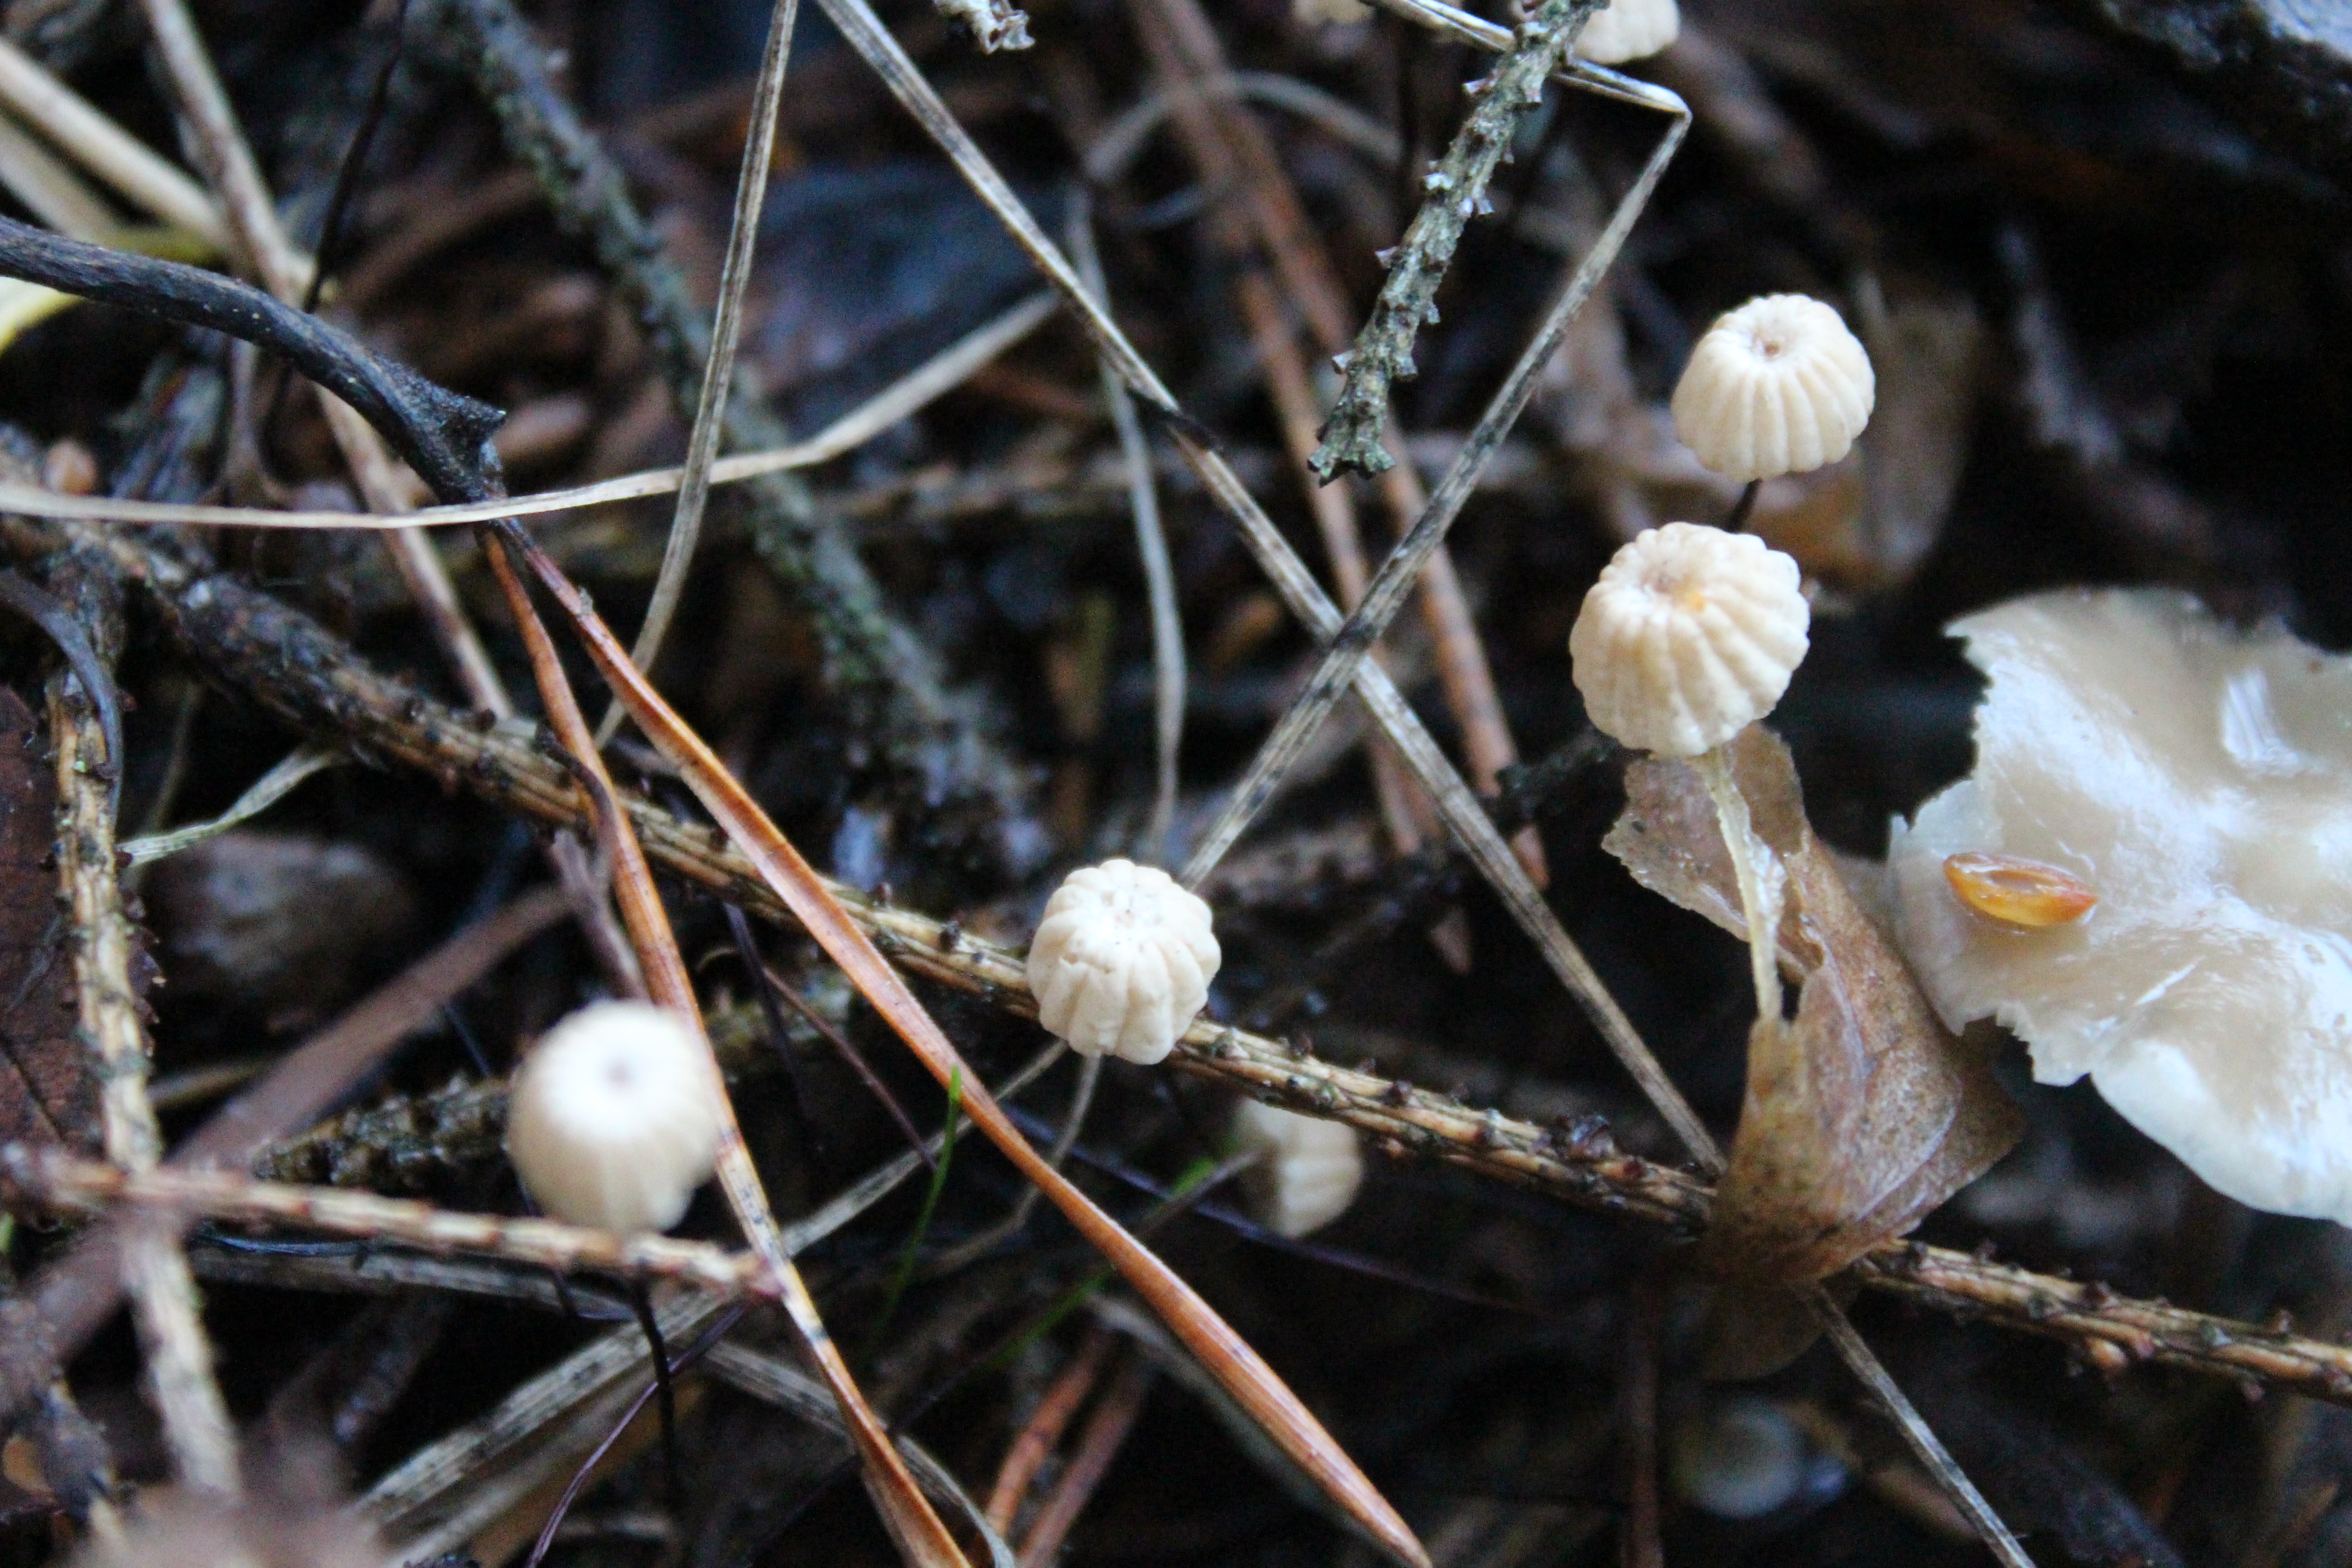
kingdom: Fungi
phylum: Basidiomycota
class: Agaricomycetes
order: Agaricales
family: Marasmiaceae
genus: Marasmius
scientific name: Marasmius wettsteinii
